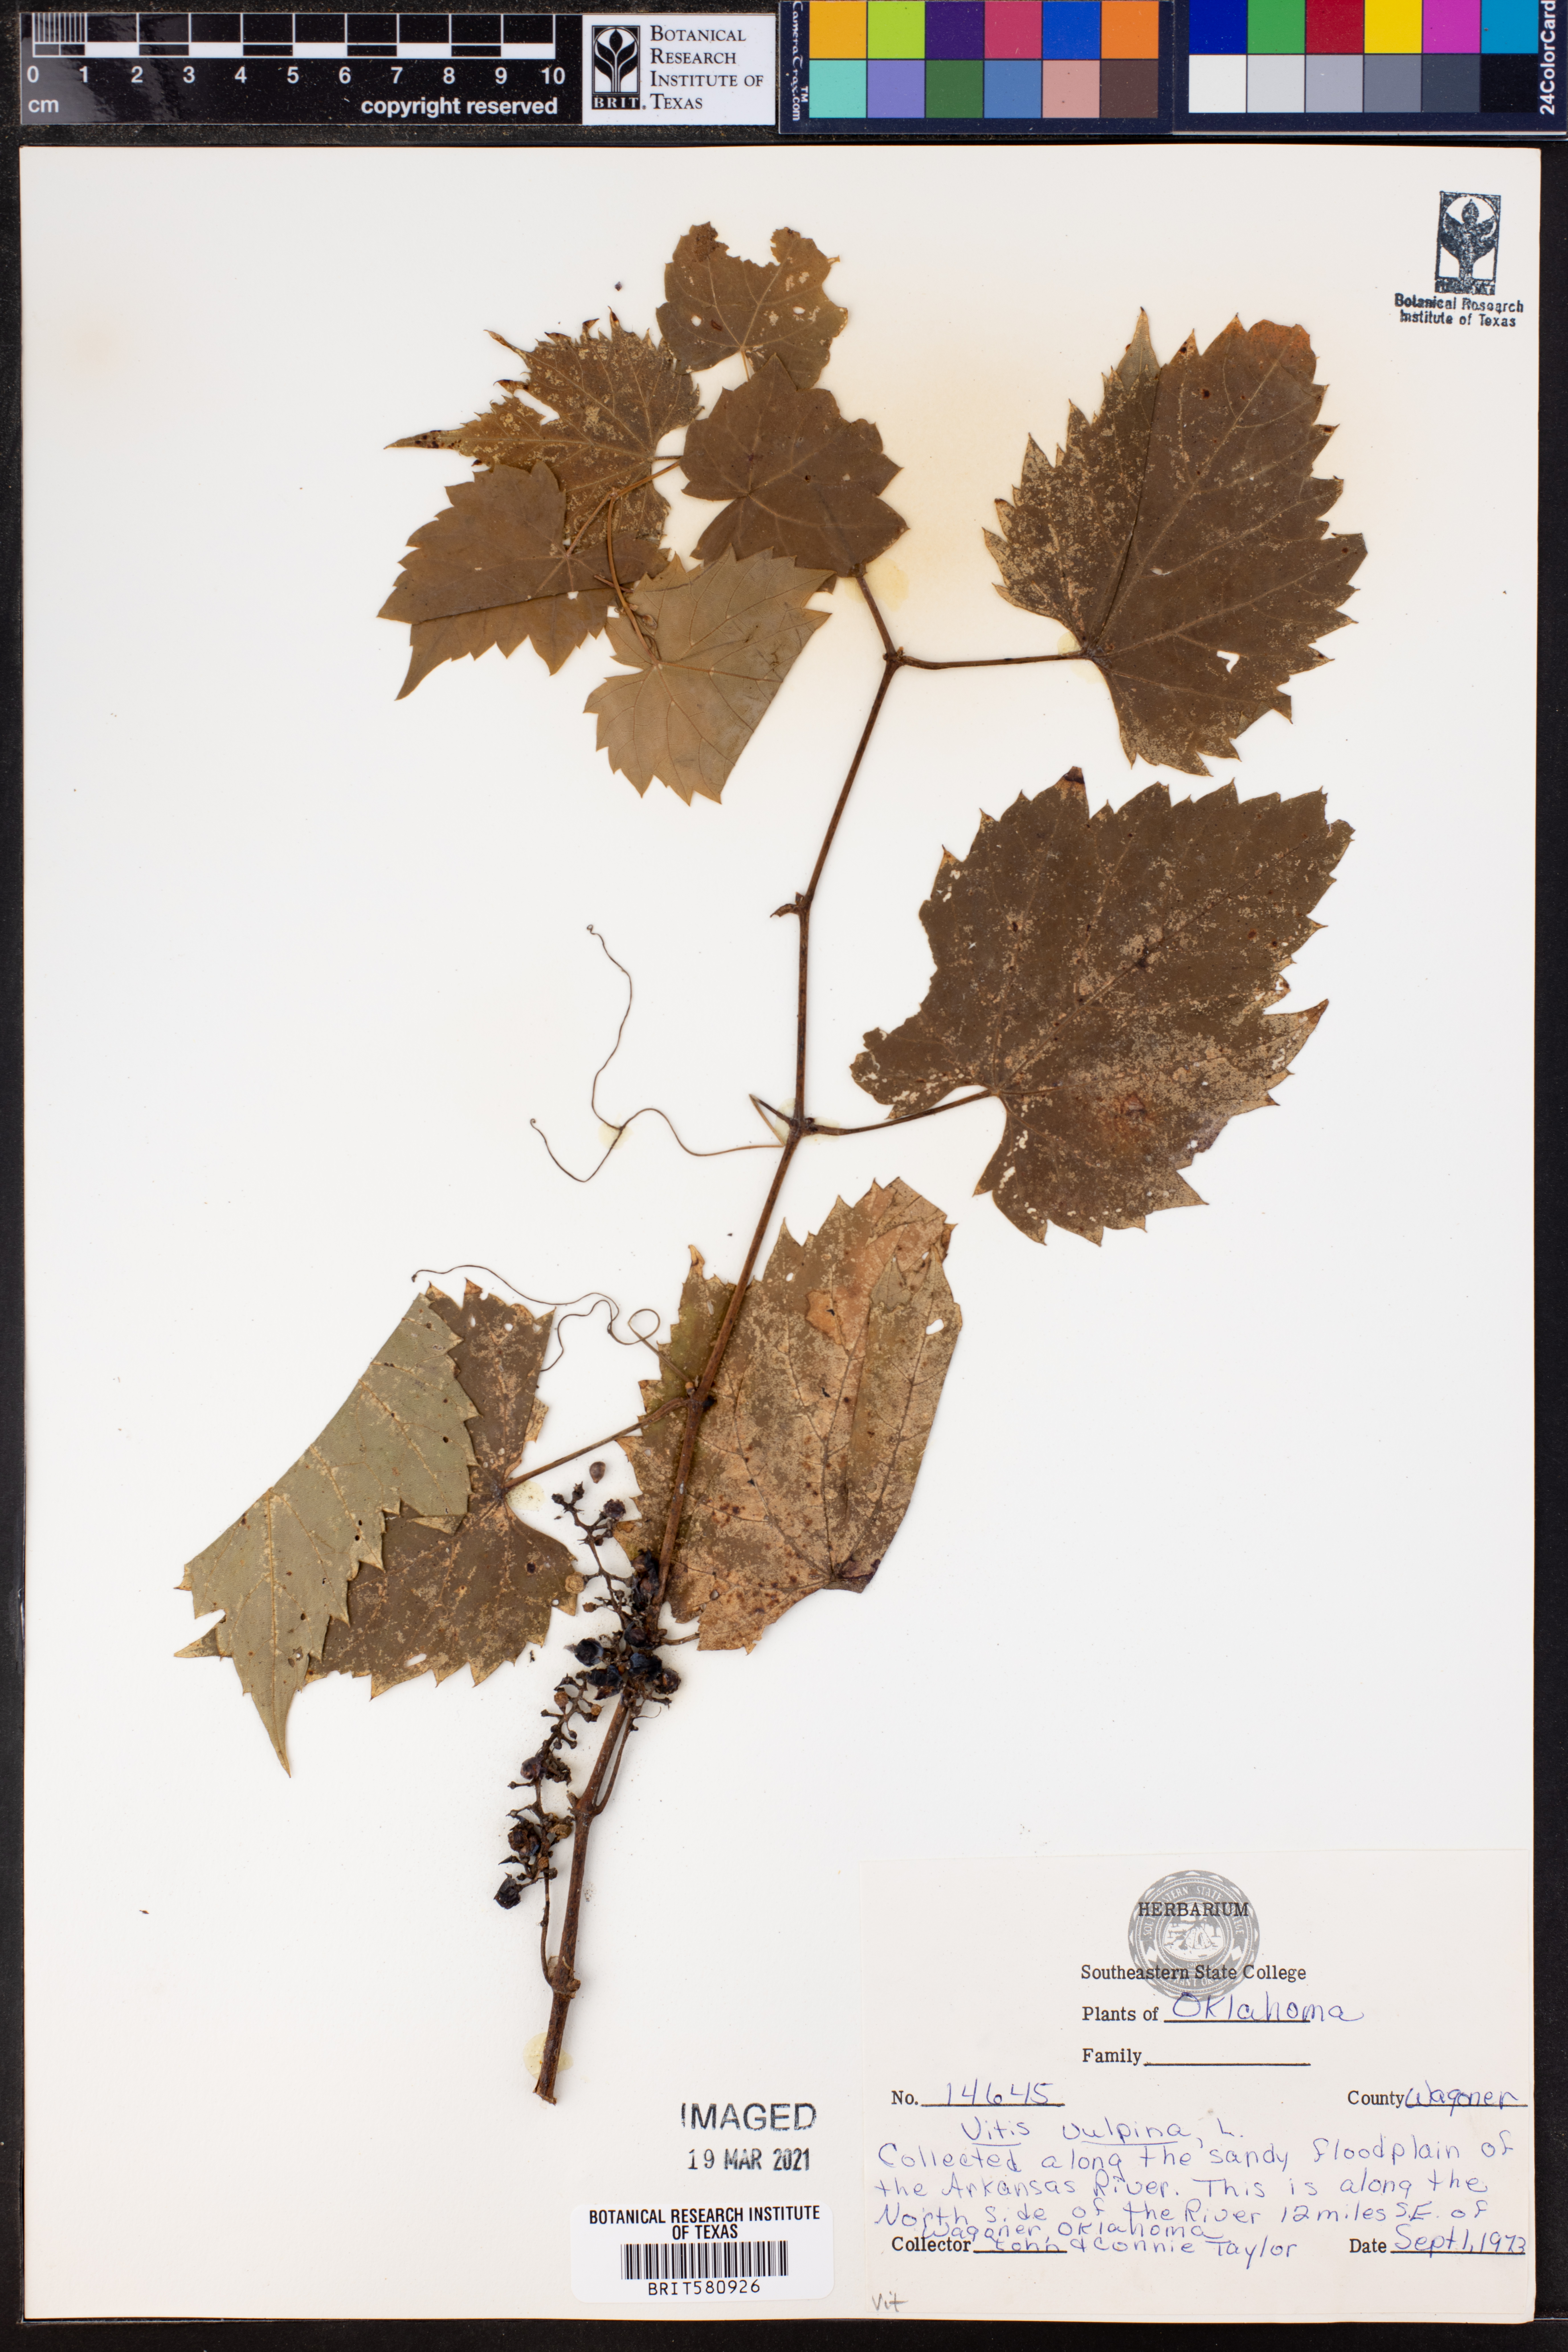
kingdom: Plantae
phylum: Tracheophyta
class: Magnoliopsida
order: Vitales
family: Vitaceae
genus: Vitis
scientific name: Vitis vulpina
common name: Frost grape
